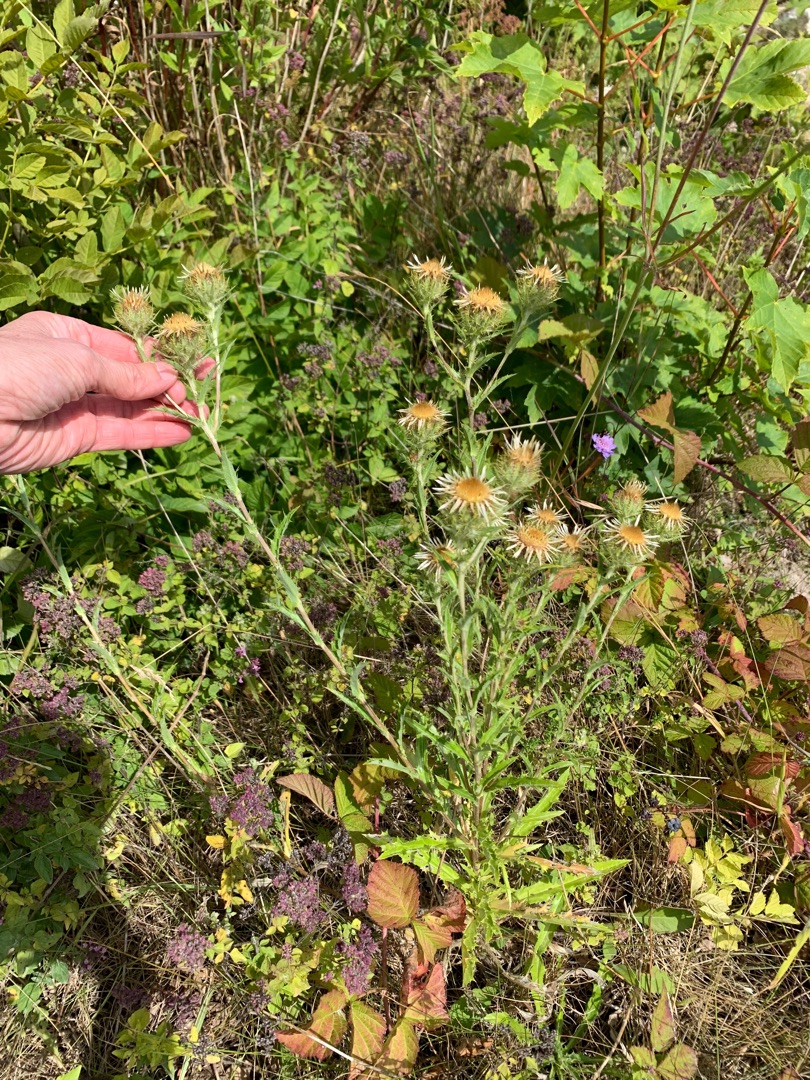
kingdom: Plantae
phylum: Tracheophyta
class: Magnoliopsida
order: Asterales
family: Asteraceae
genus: Carlina
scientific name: Carlina biebersteinii
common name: Langbladet bakketidsel
